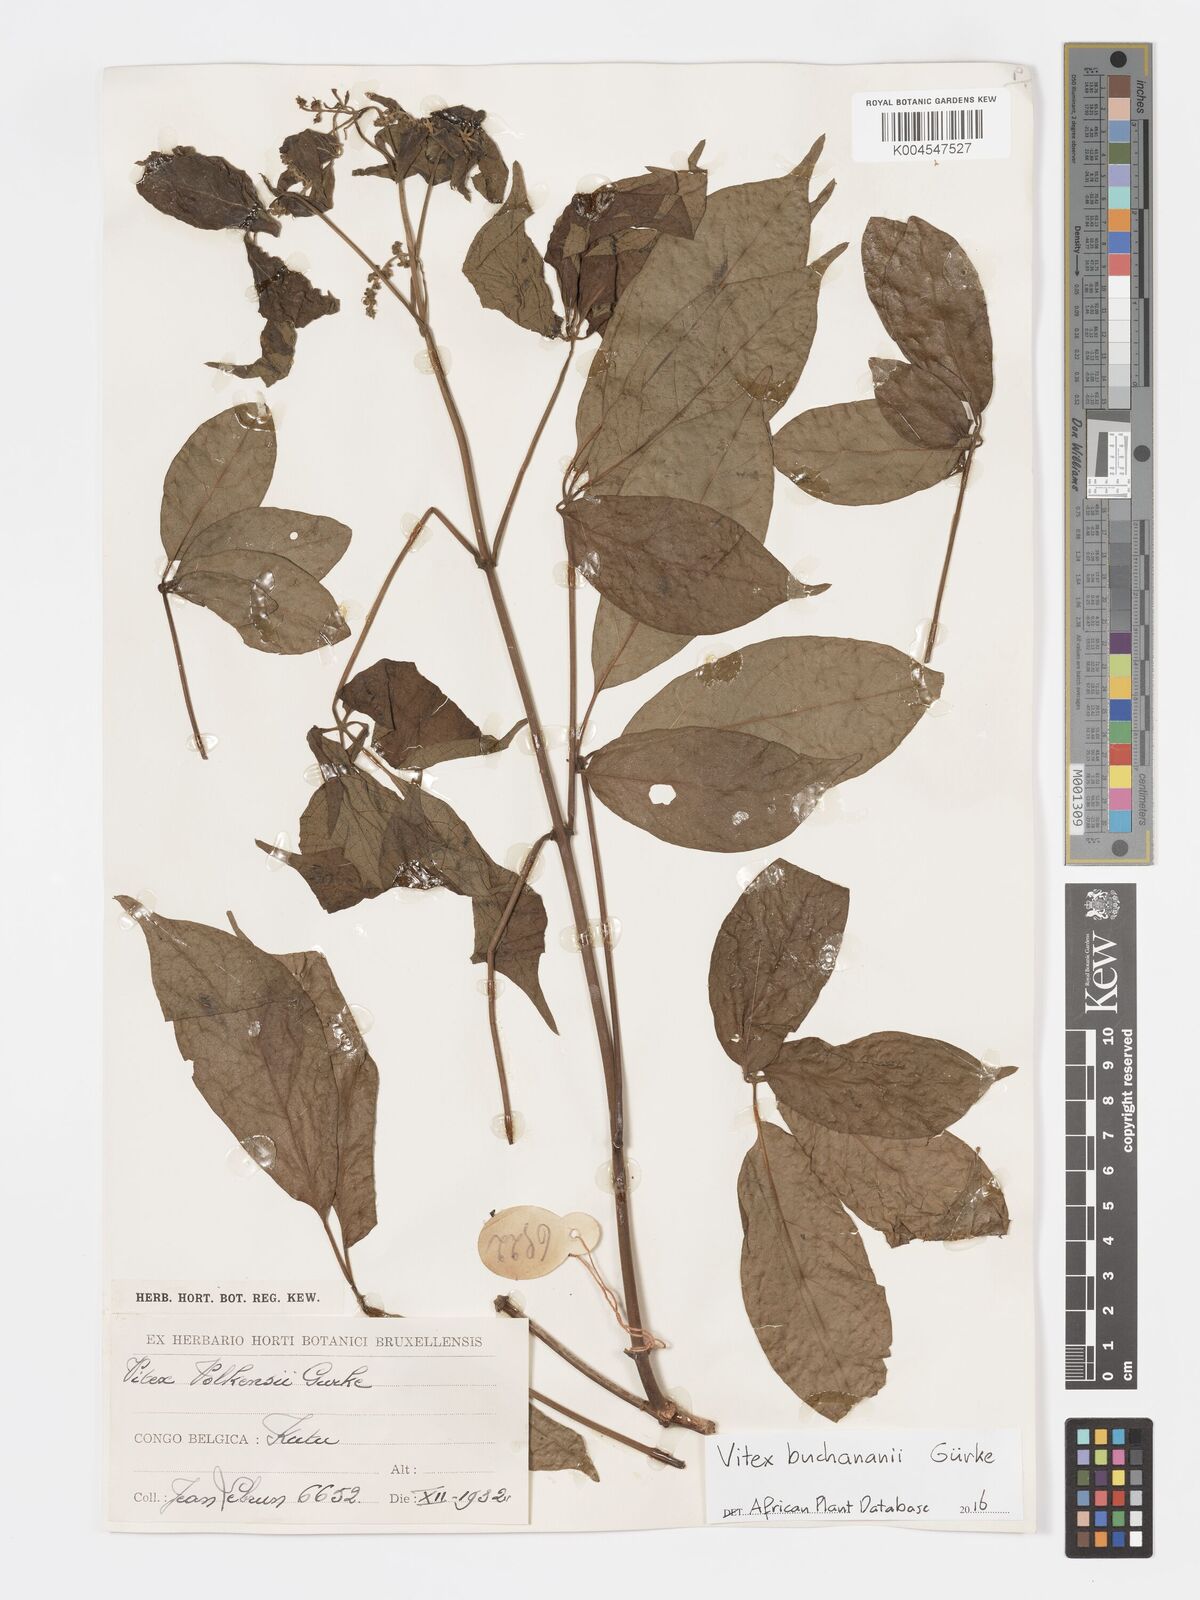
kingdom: Plantae
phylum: Tracheophyta
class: Magnoliopsida
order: Lamiales
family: Lamiaceae
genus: Vitex
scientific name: Vitex buchananii
